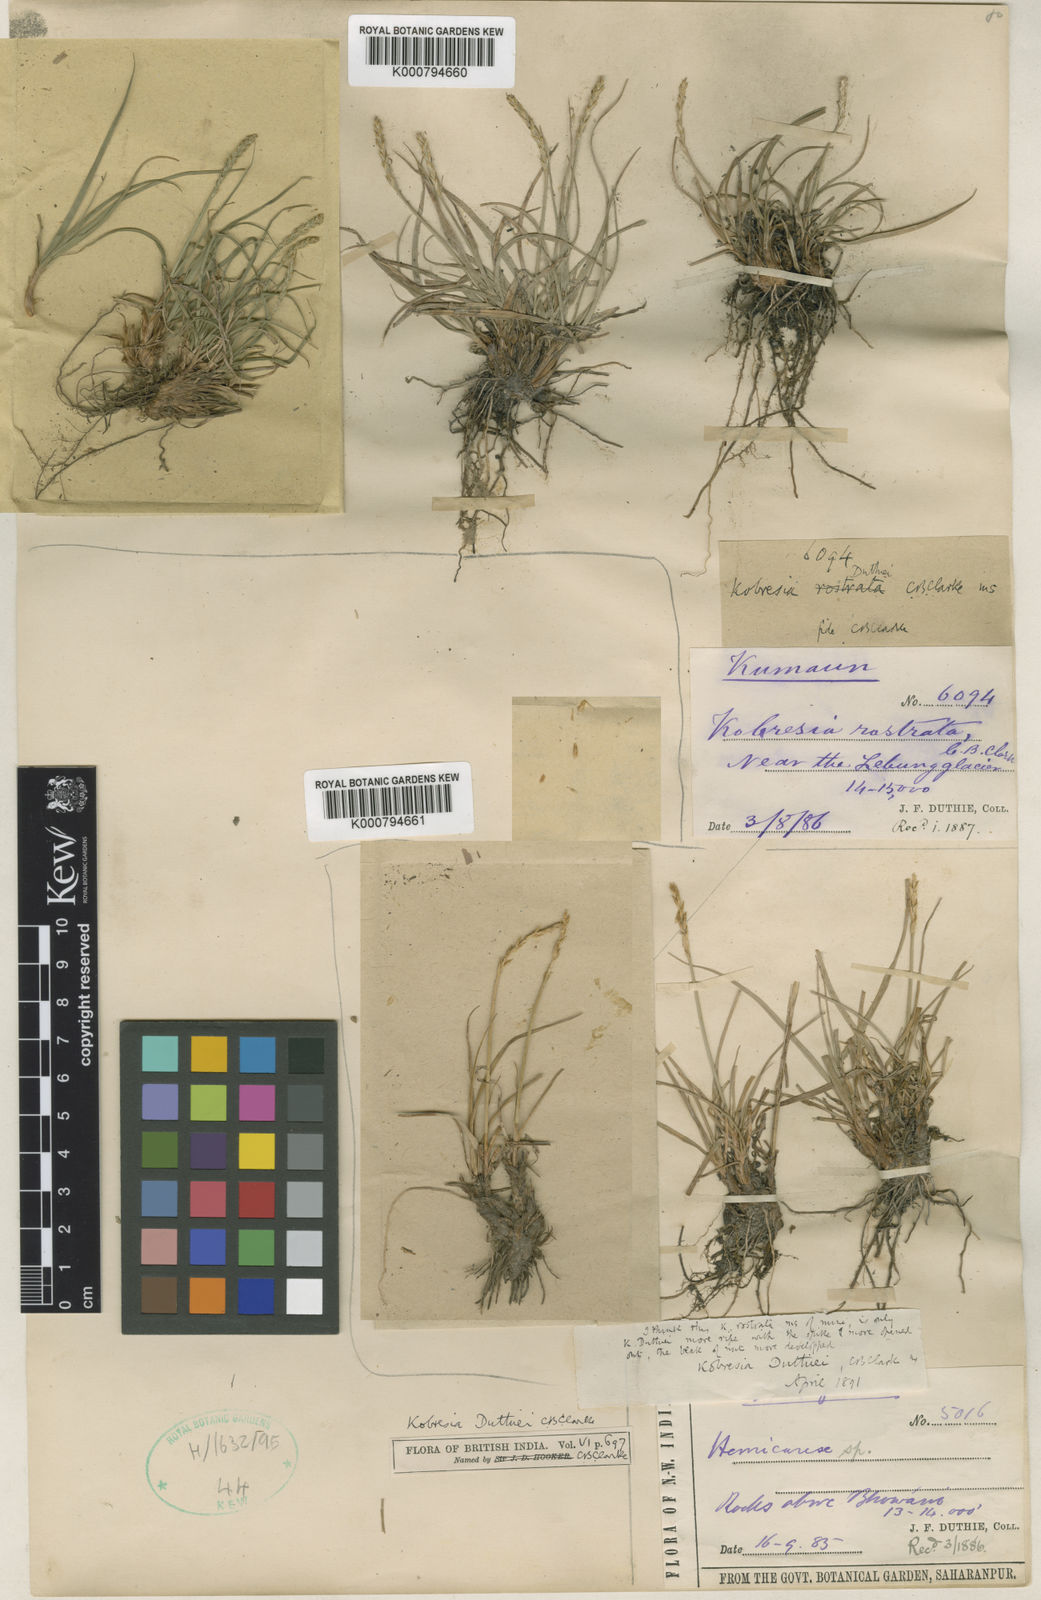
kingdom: Plantae
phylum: Tracheophyta
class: Liliopsida
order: Poales
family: Cyperaceae
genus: Carex
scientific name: Carex clavispica
